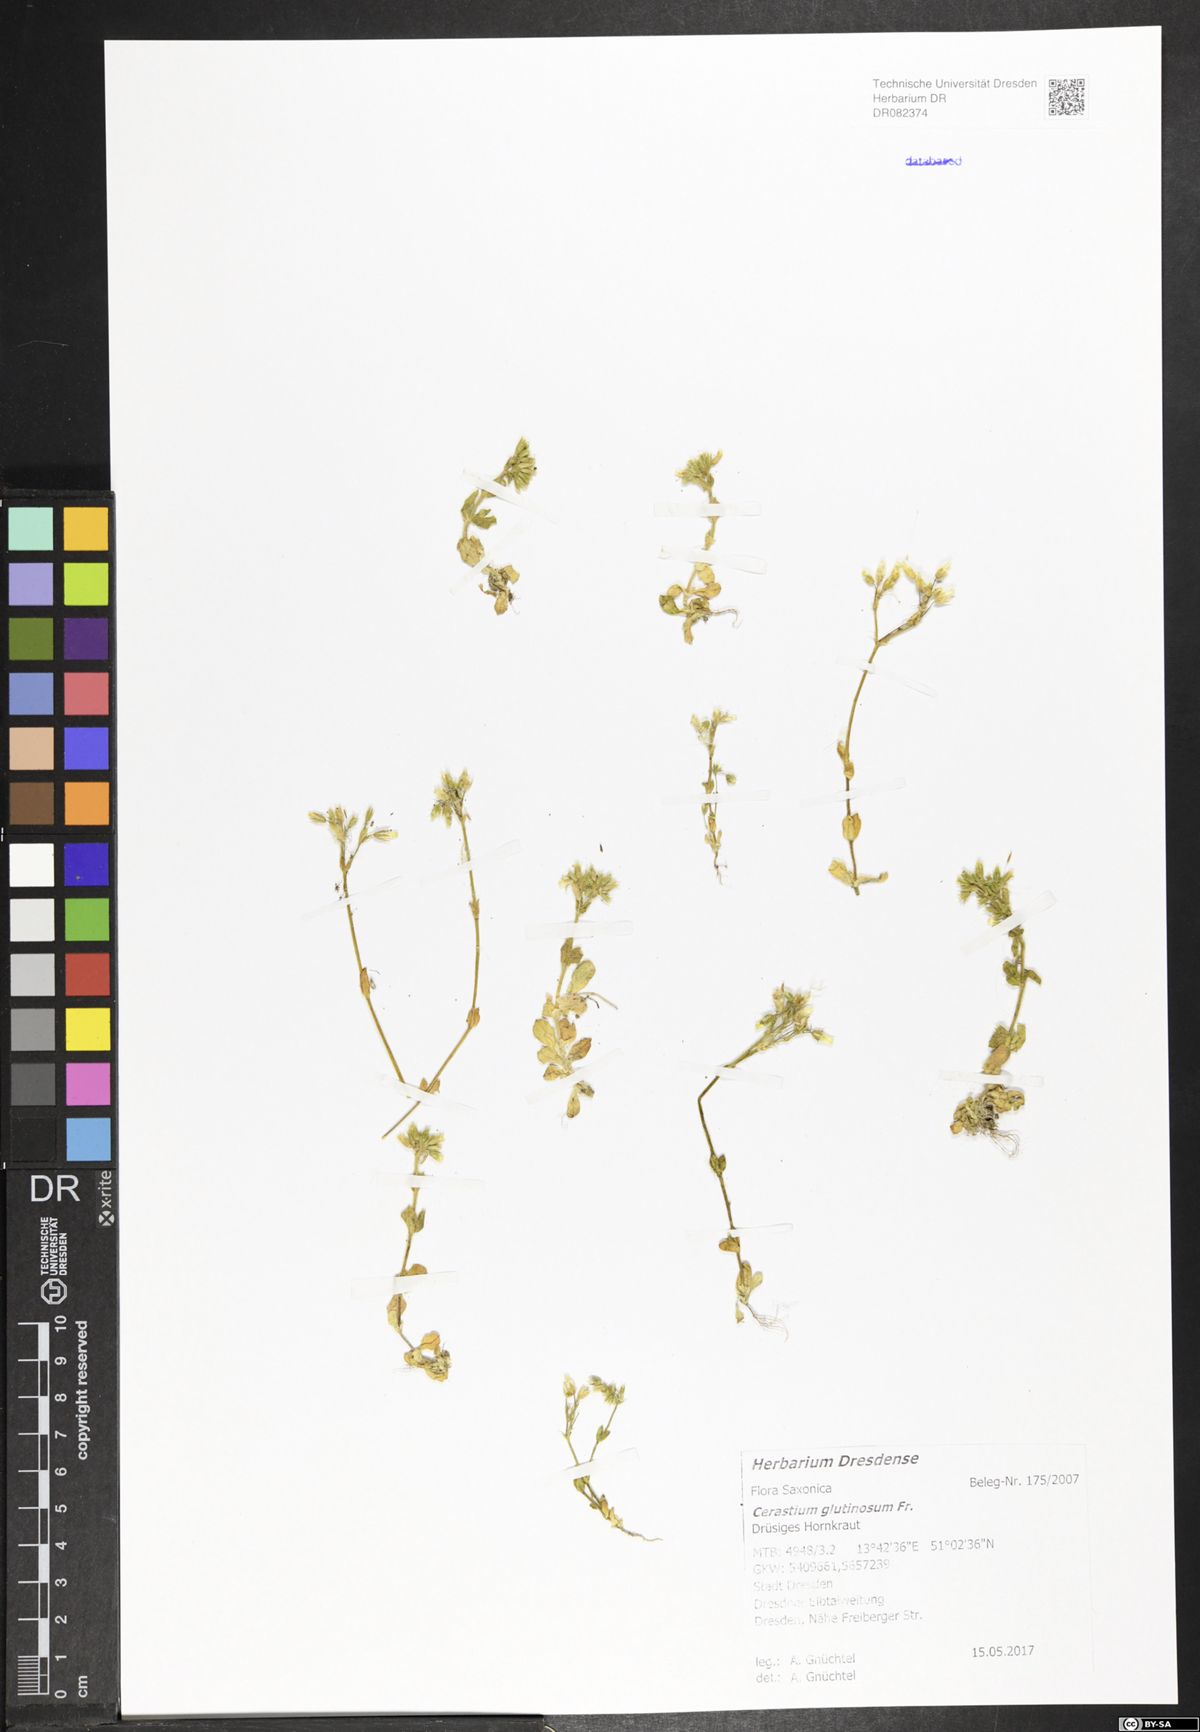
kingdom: Plantae
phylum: Tracheophyta
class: Magnoliopsida
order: Caryophyllales
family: Caryophyllaceae
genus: Cerastium
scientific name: Cerastium glutinosum
